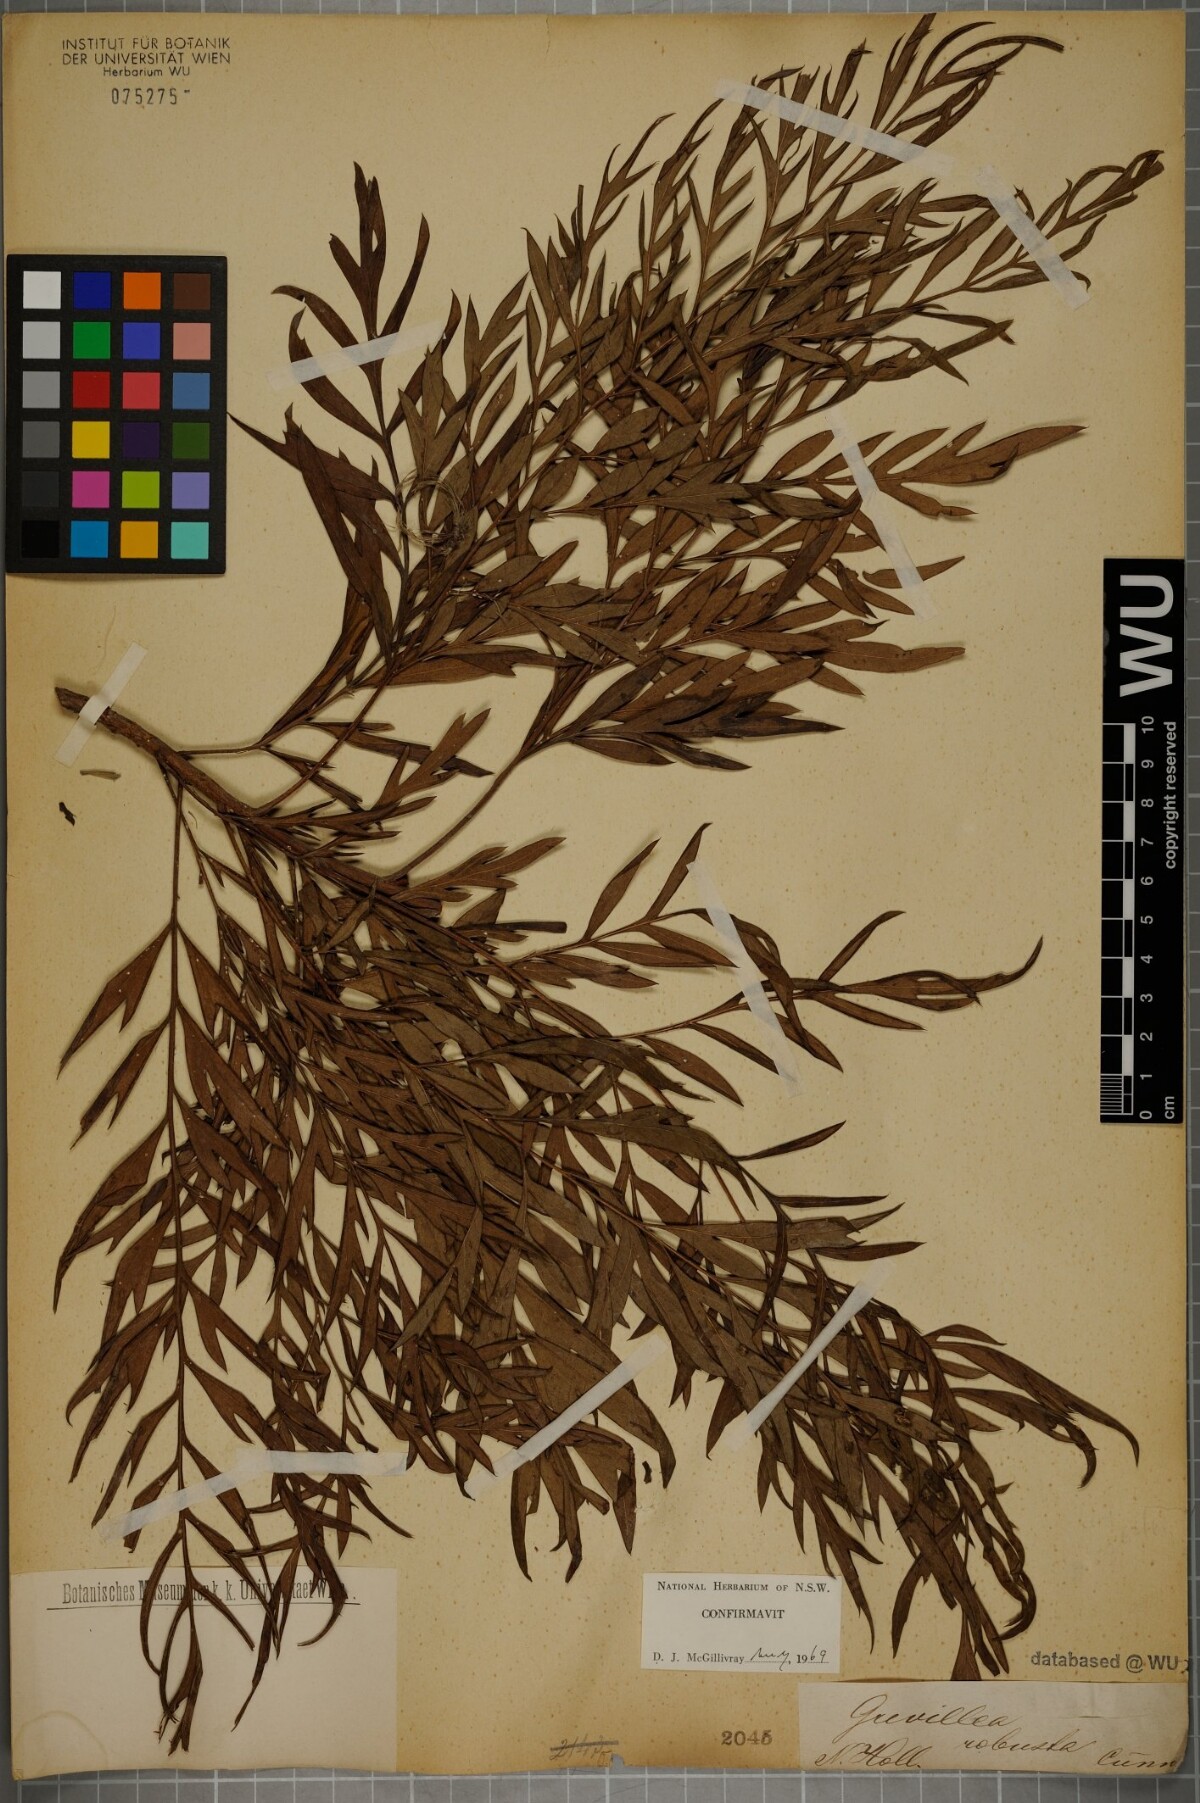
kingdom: Plantae
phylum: Tracheophyta
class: Magnoliopsida
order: Proteales
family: Proteaceae
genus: Grevillea
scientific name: Grevillea robusta
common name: Silkoak
